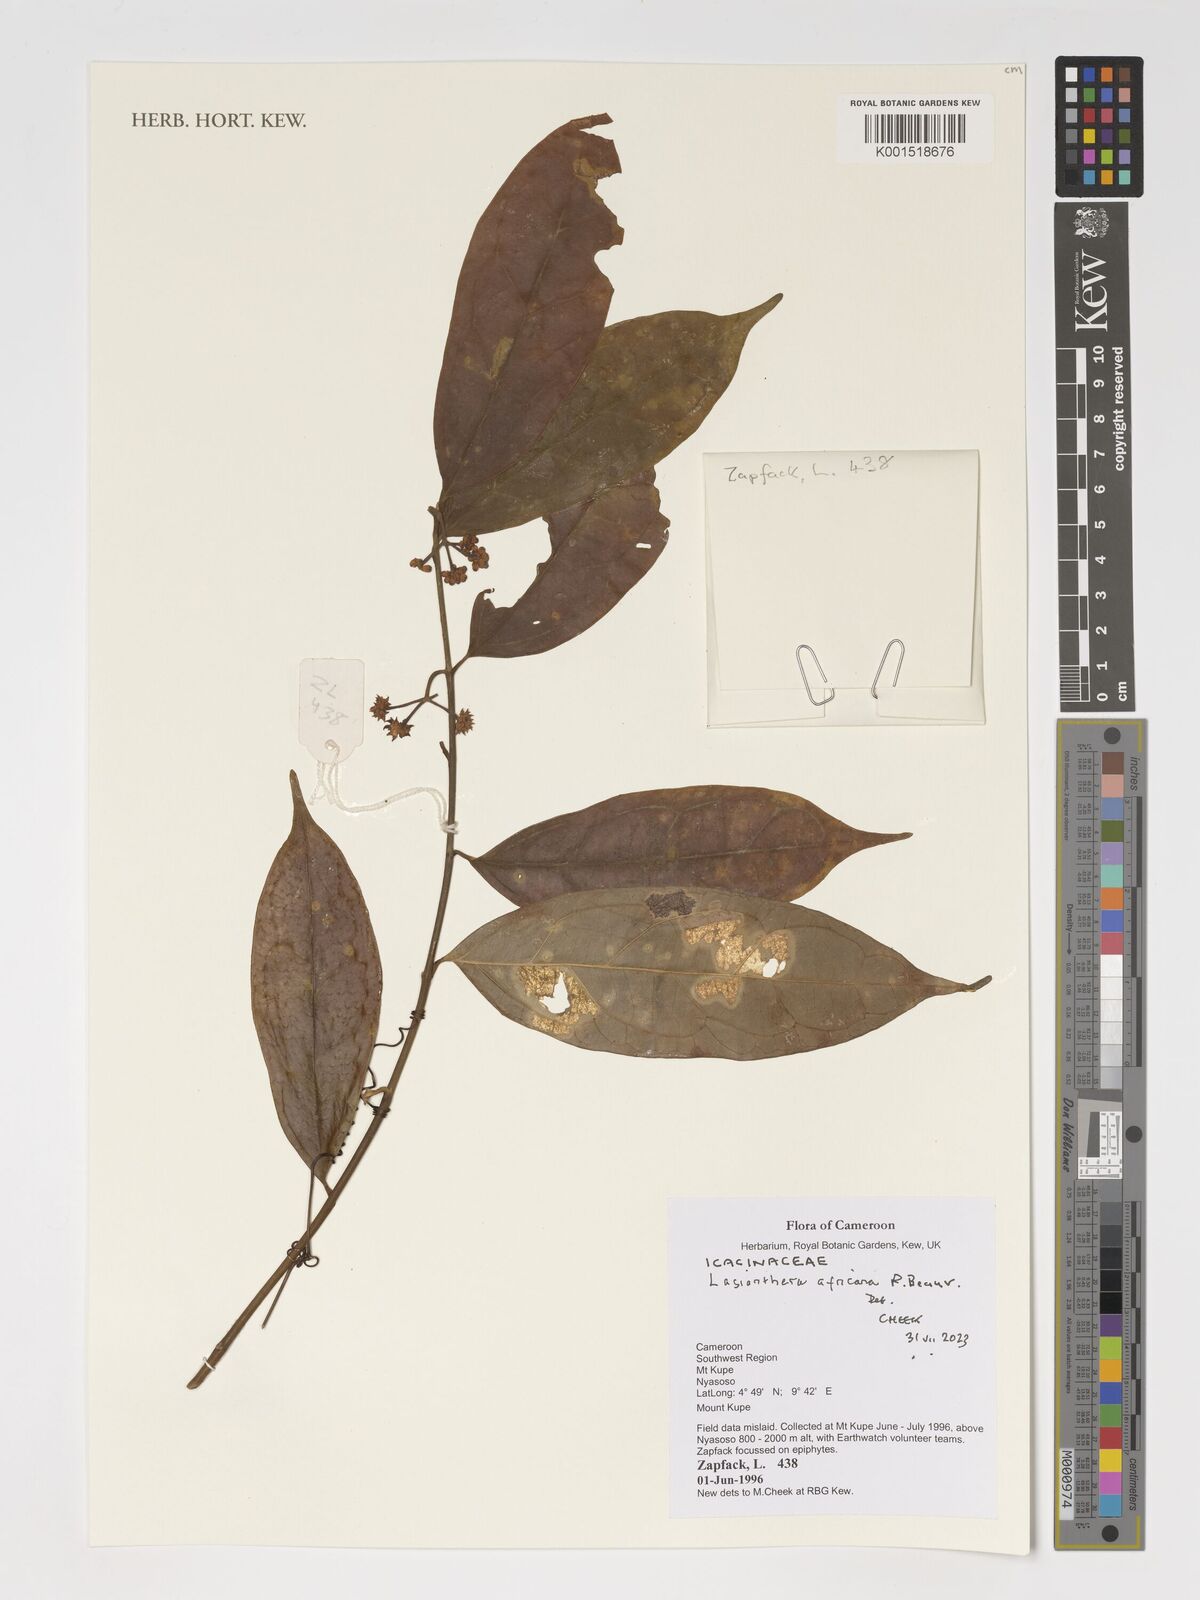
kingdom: Plantae
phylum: Tracheophyta
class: Magnoliopsida
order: Cardiopteridales
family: Stemonuraceae
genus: Lasianthera
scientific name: Lasianthera africana
